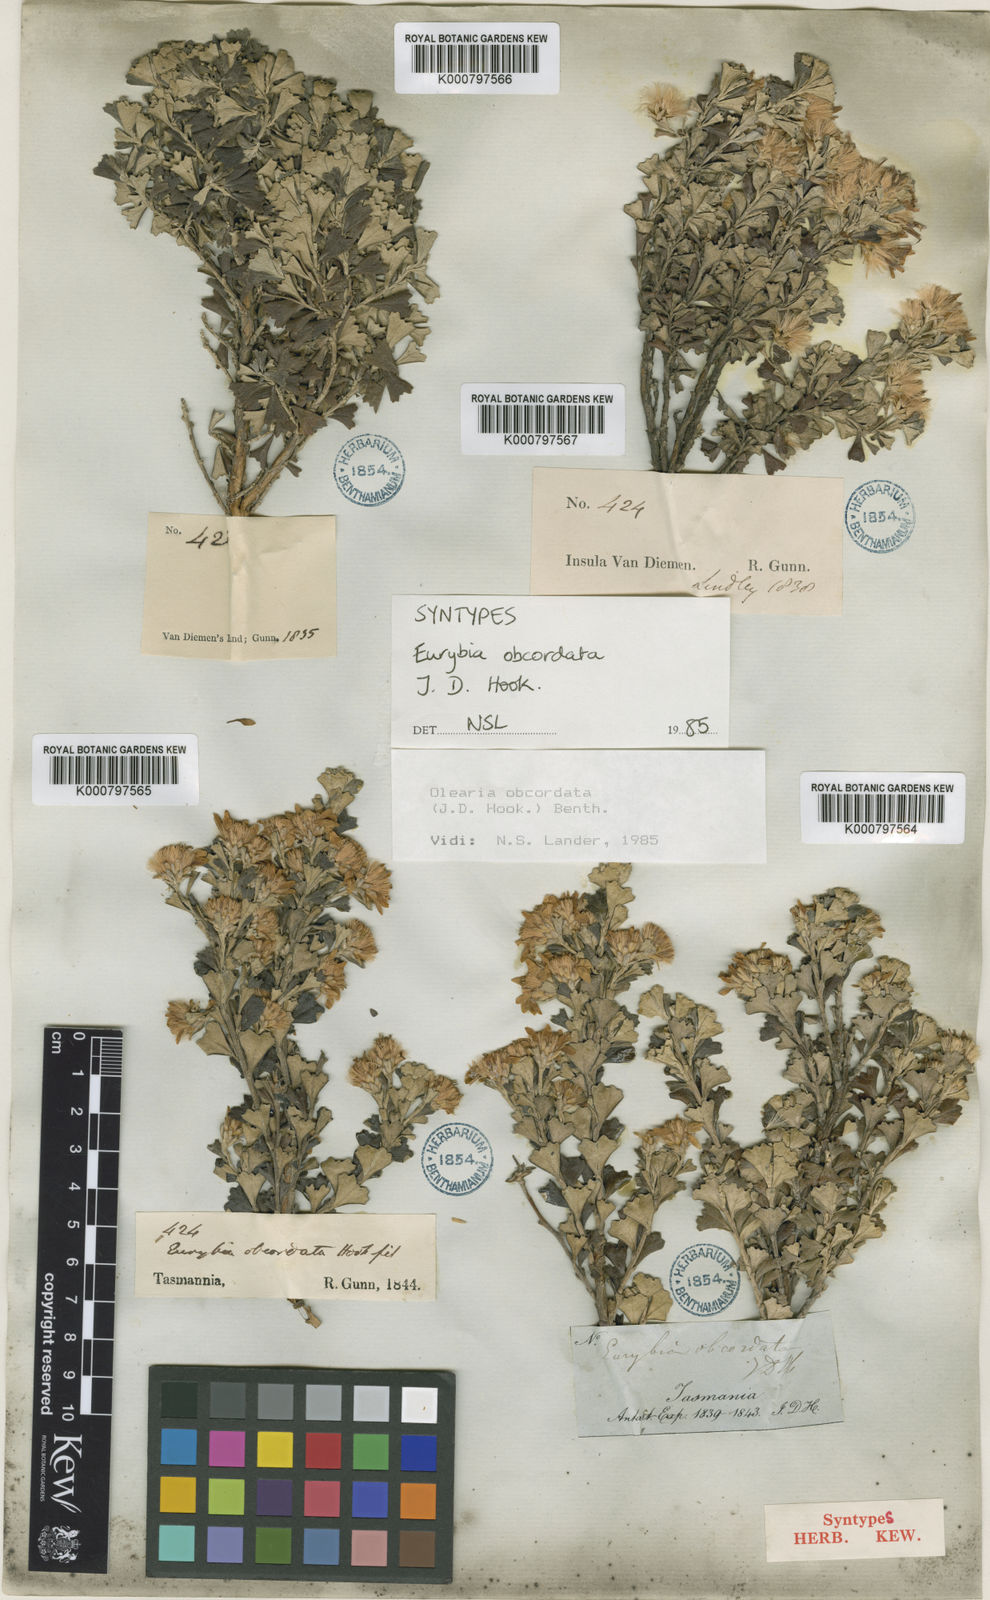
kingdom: Plantae
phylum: Tracheophyta
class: Magnoliopsida
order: Asterales
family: Asteraceae
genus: Olearia
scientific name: Olearia obcordata
